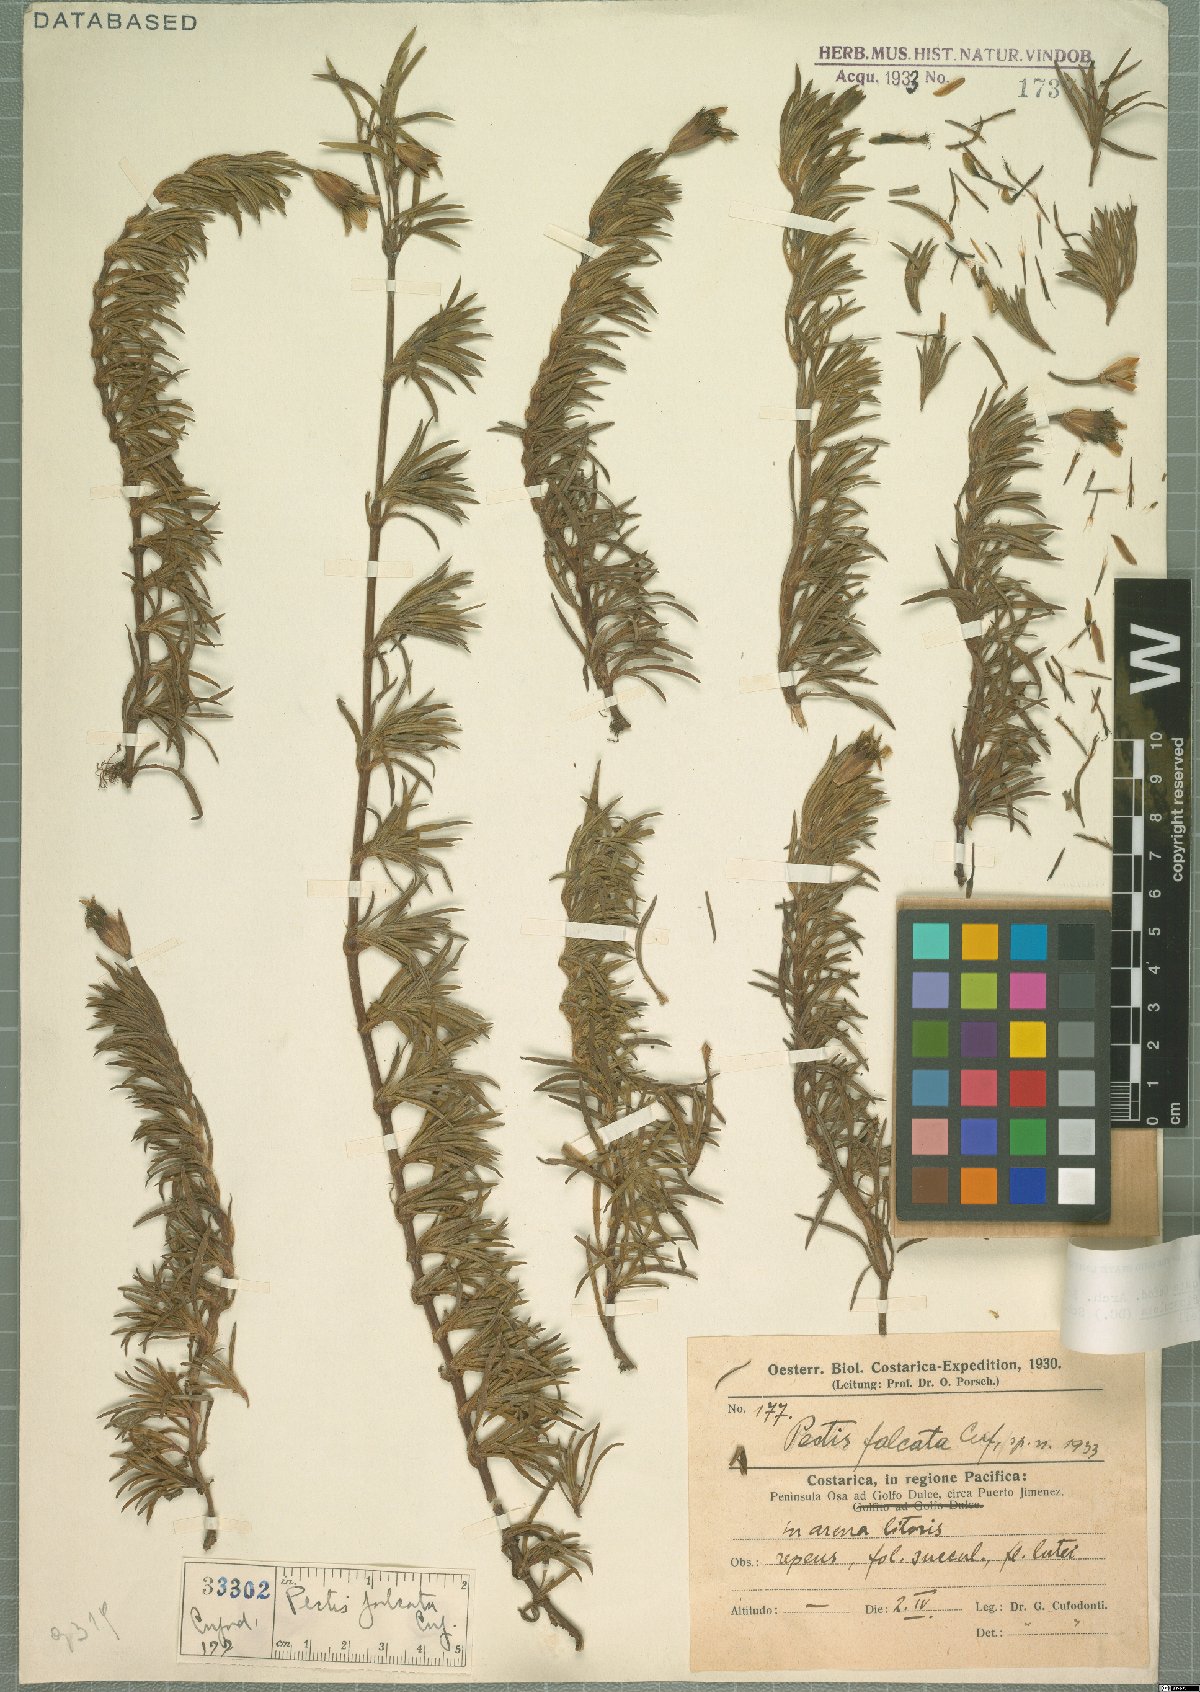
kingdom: Plantae
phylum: Tracheophyta
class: Magnoliopsida
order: Asterales
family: Asteraceae
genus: Pectis
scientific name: Pectis multiflosculosa
